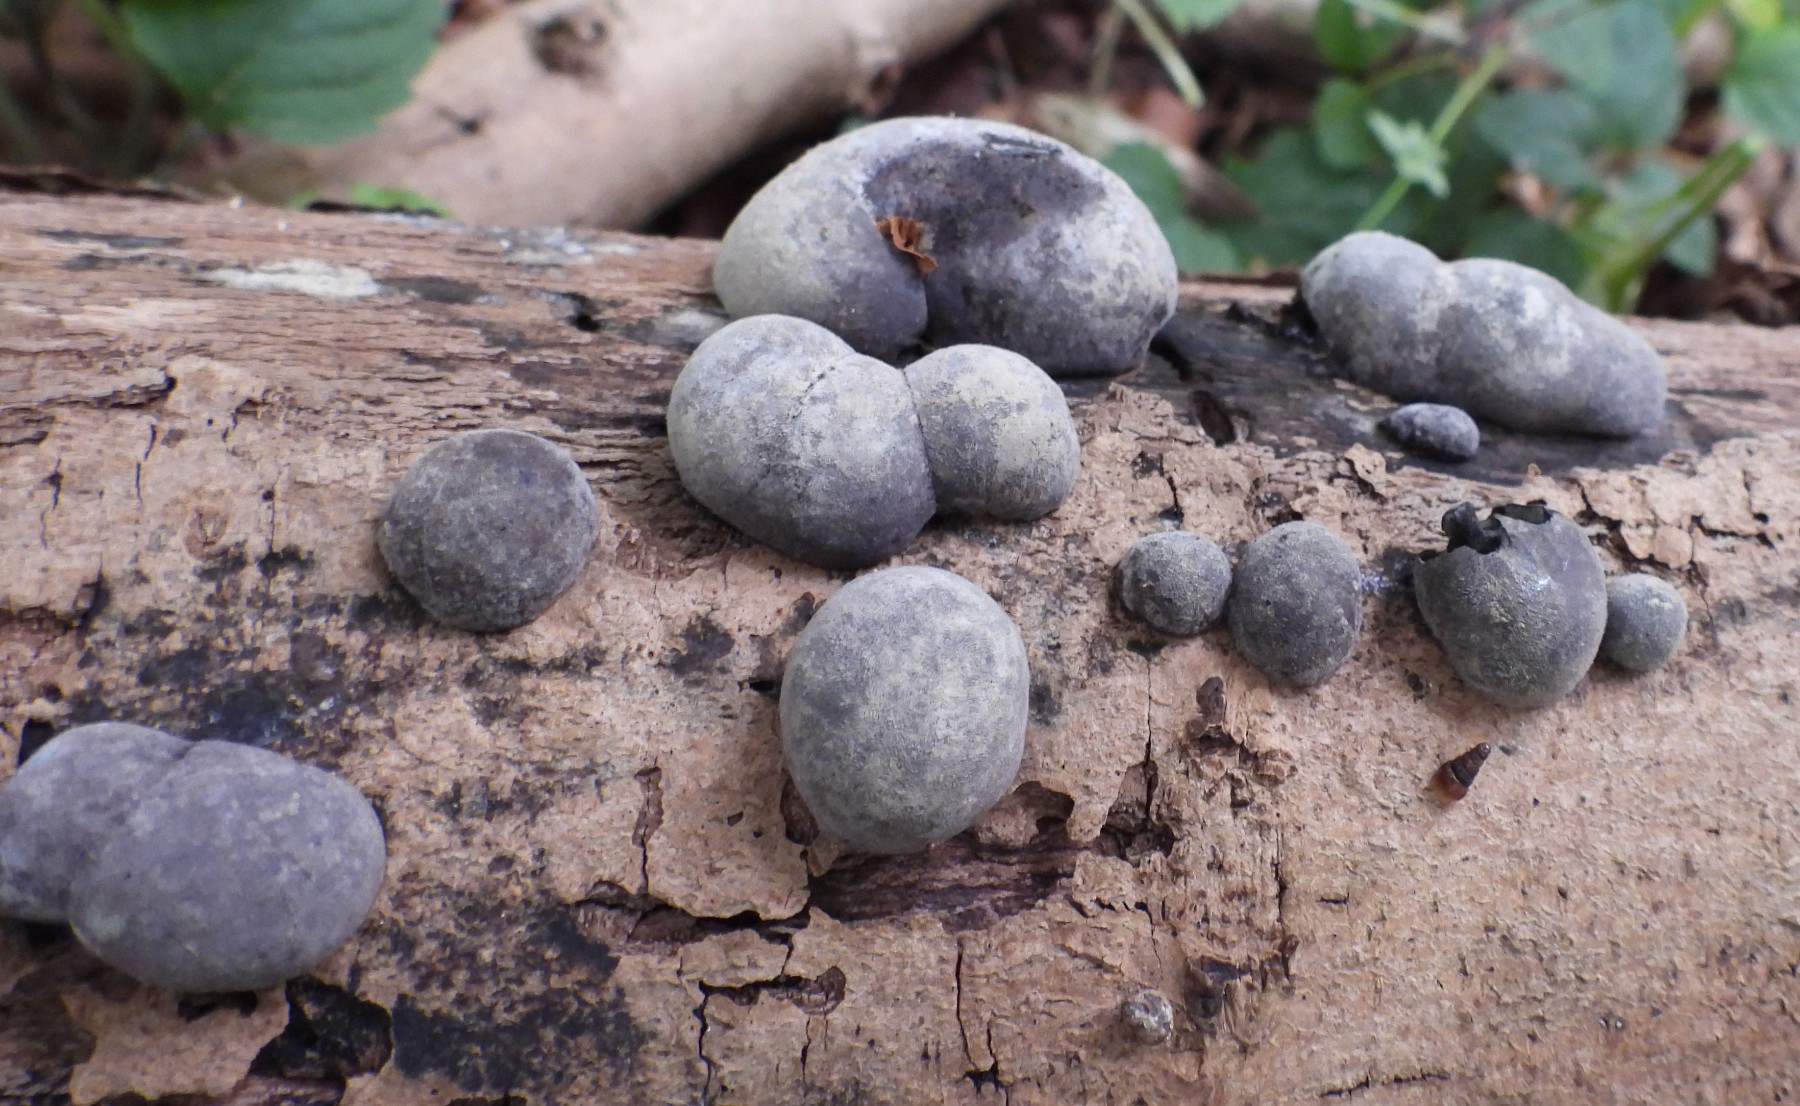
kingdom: Fungi
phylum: Ascomycota
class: Sordariomycetes
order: Xylariales
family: Hypoxylaceae
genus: Daldinia
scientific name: Daldinia concentrica
